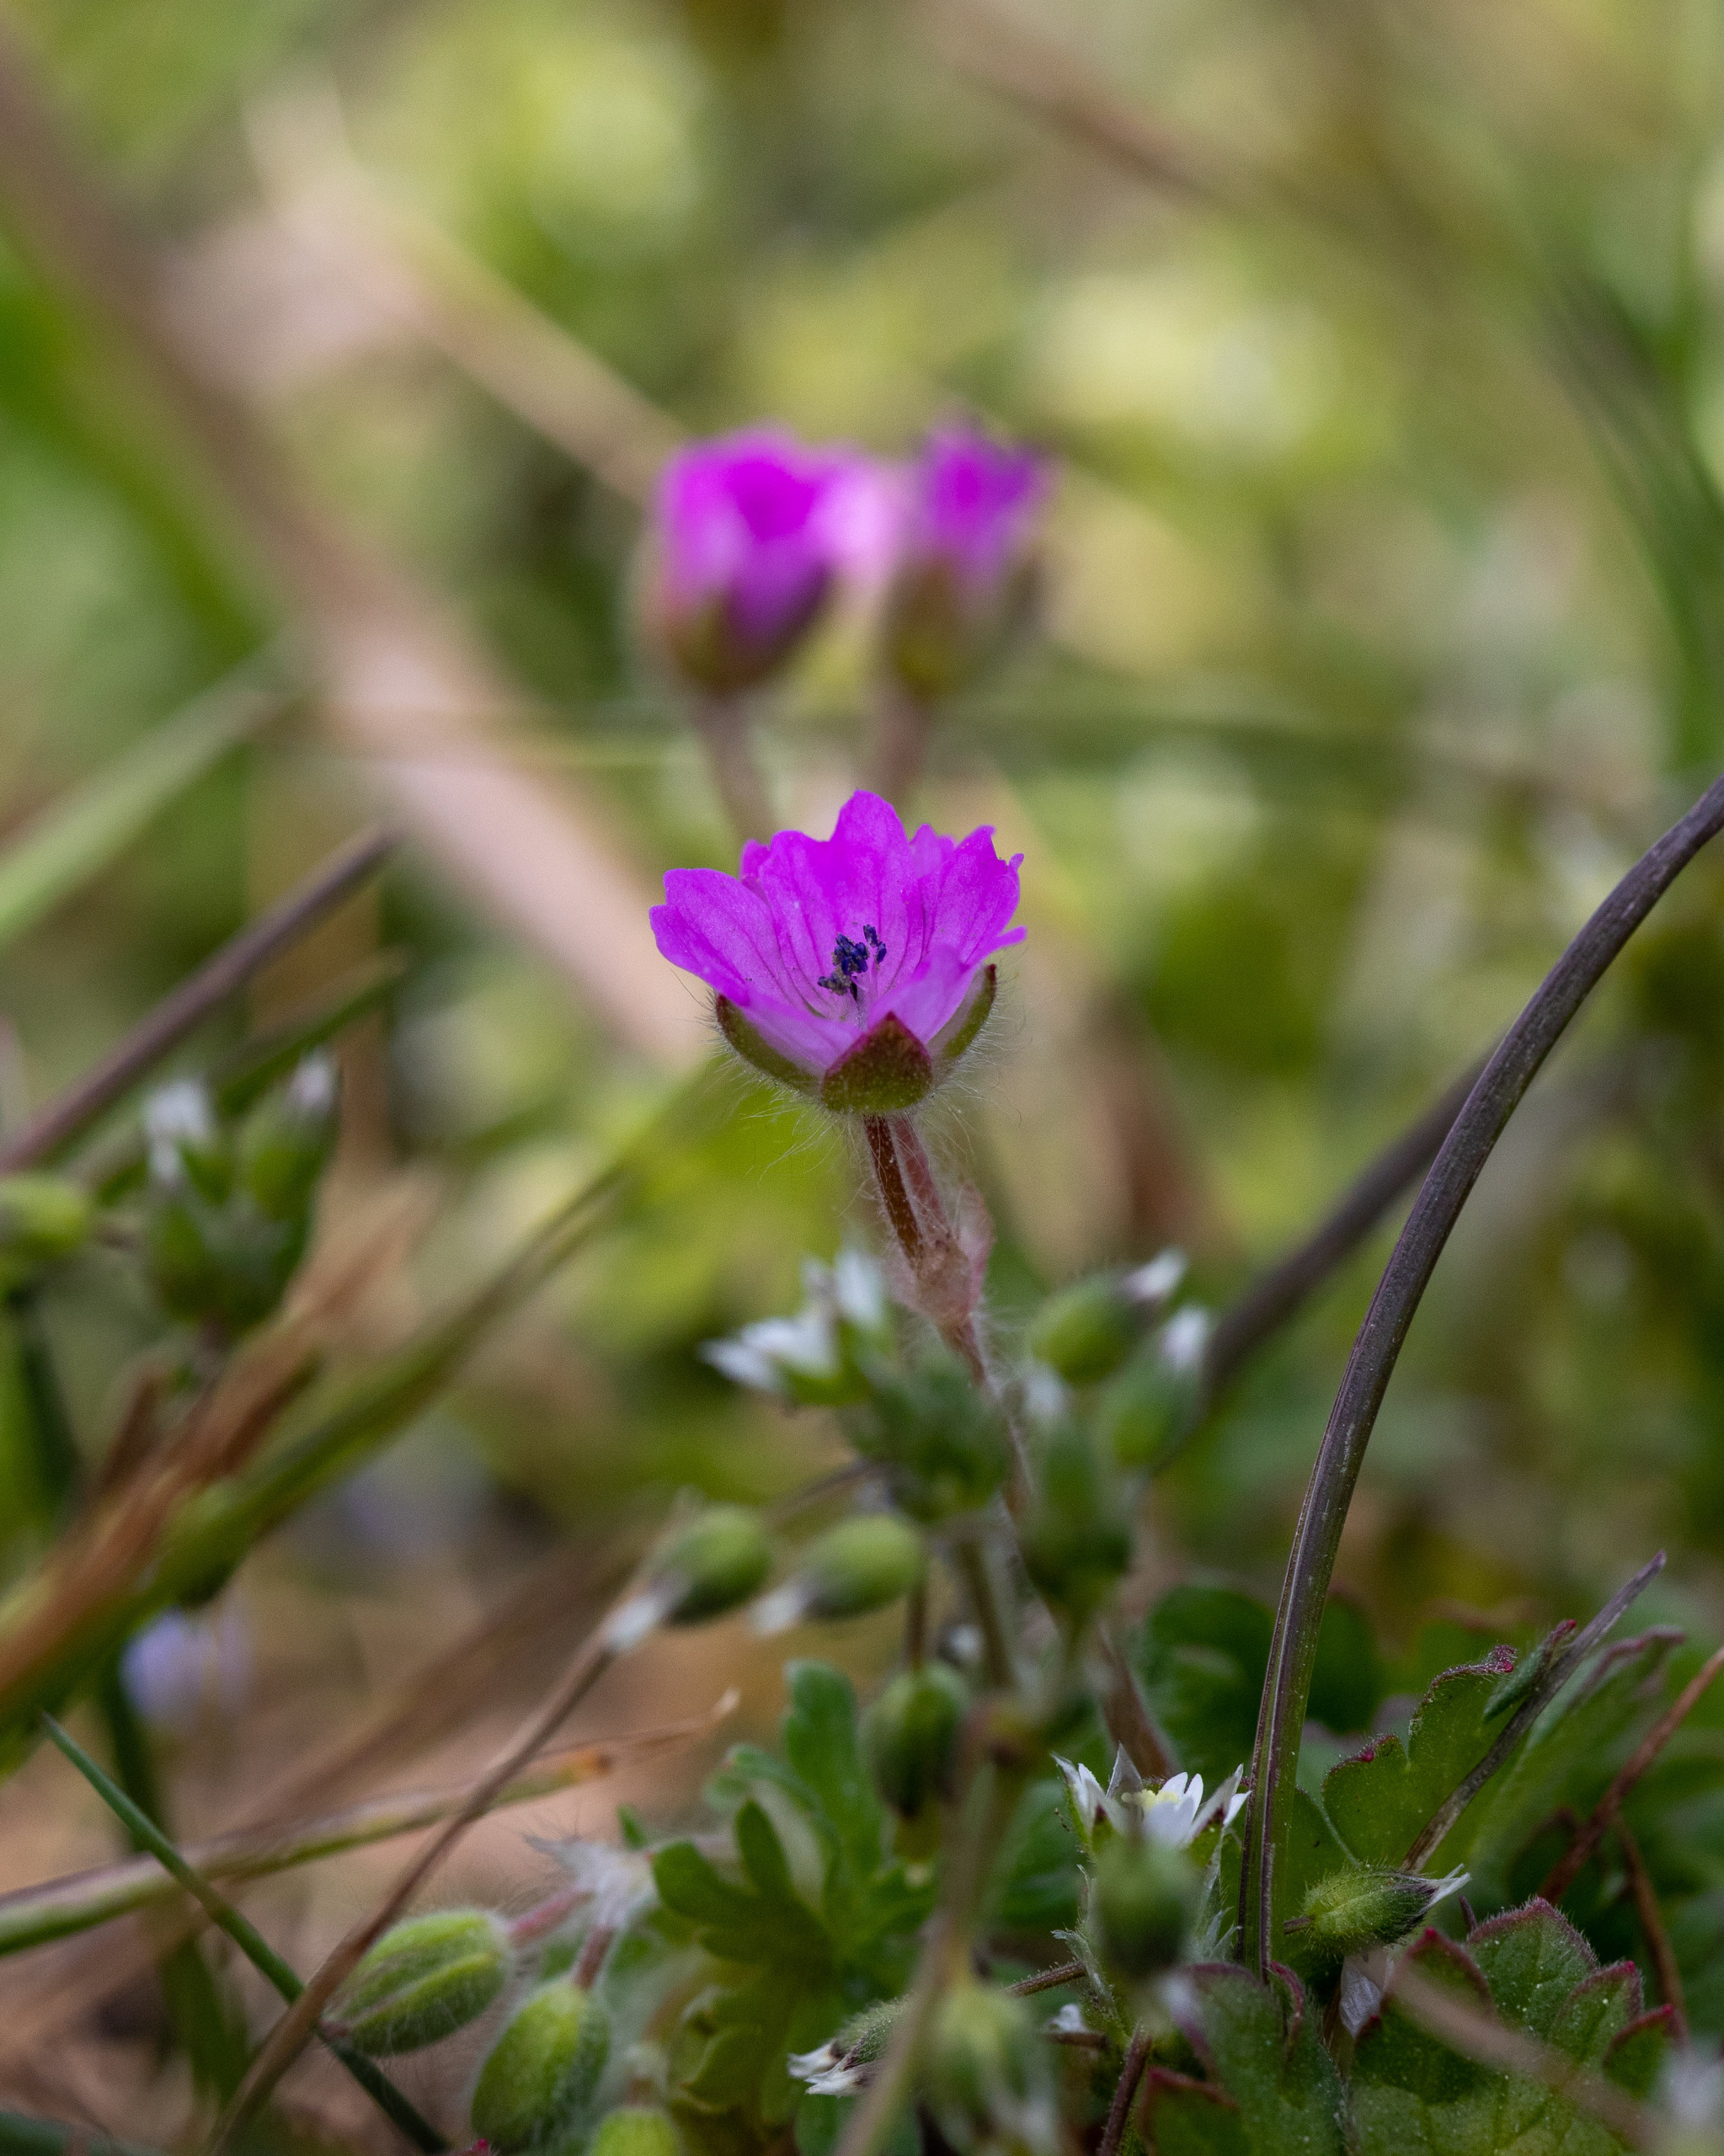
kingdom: Plantae
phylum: Tracheophyta
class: Magnoliopsida
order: Geraniales
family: Geraniaceae
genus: Geranium
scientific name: Geranium molle
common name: Blød storkenæb
